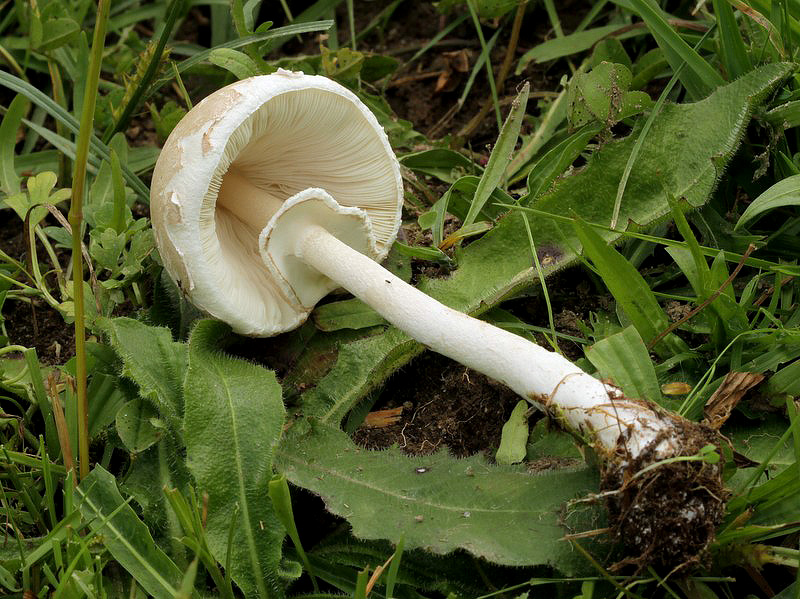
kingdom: Fungi
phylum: Basidiomycota
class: Agaricomycetes
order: Agaricales
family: Agaricaceae
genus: Macrolepiota
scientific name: Macrolepiota excoriata
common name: mark-kæmpeparasolhat
